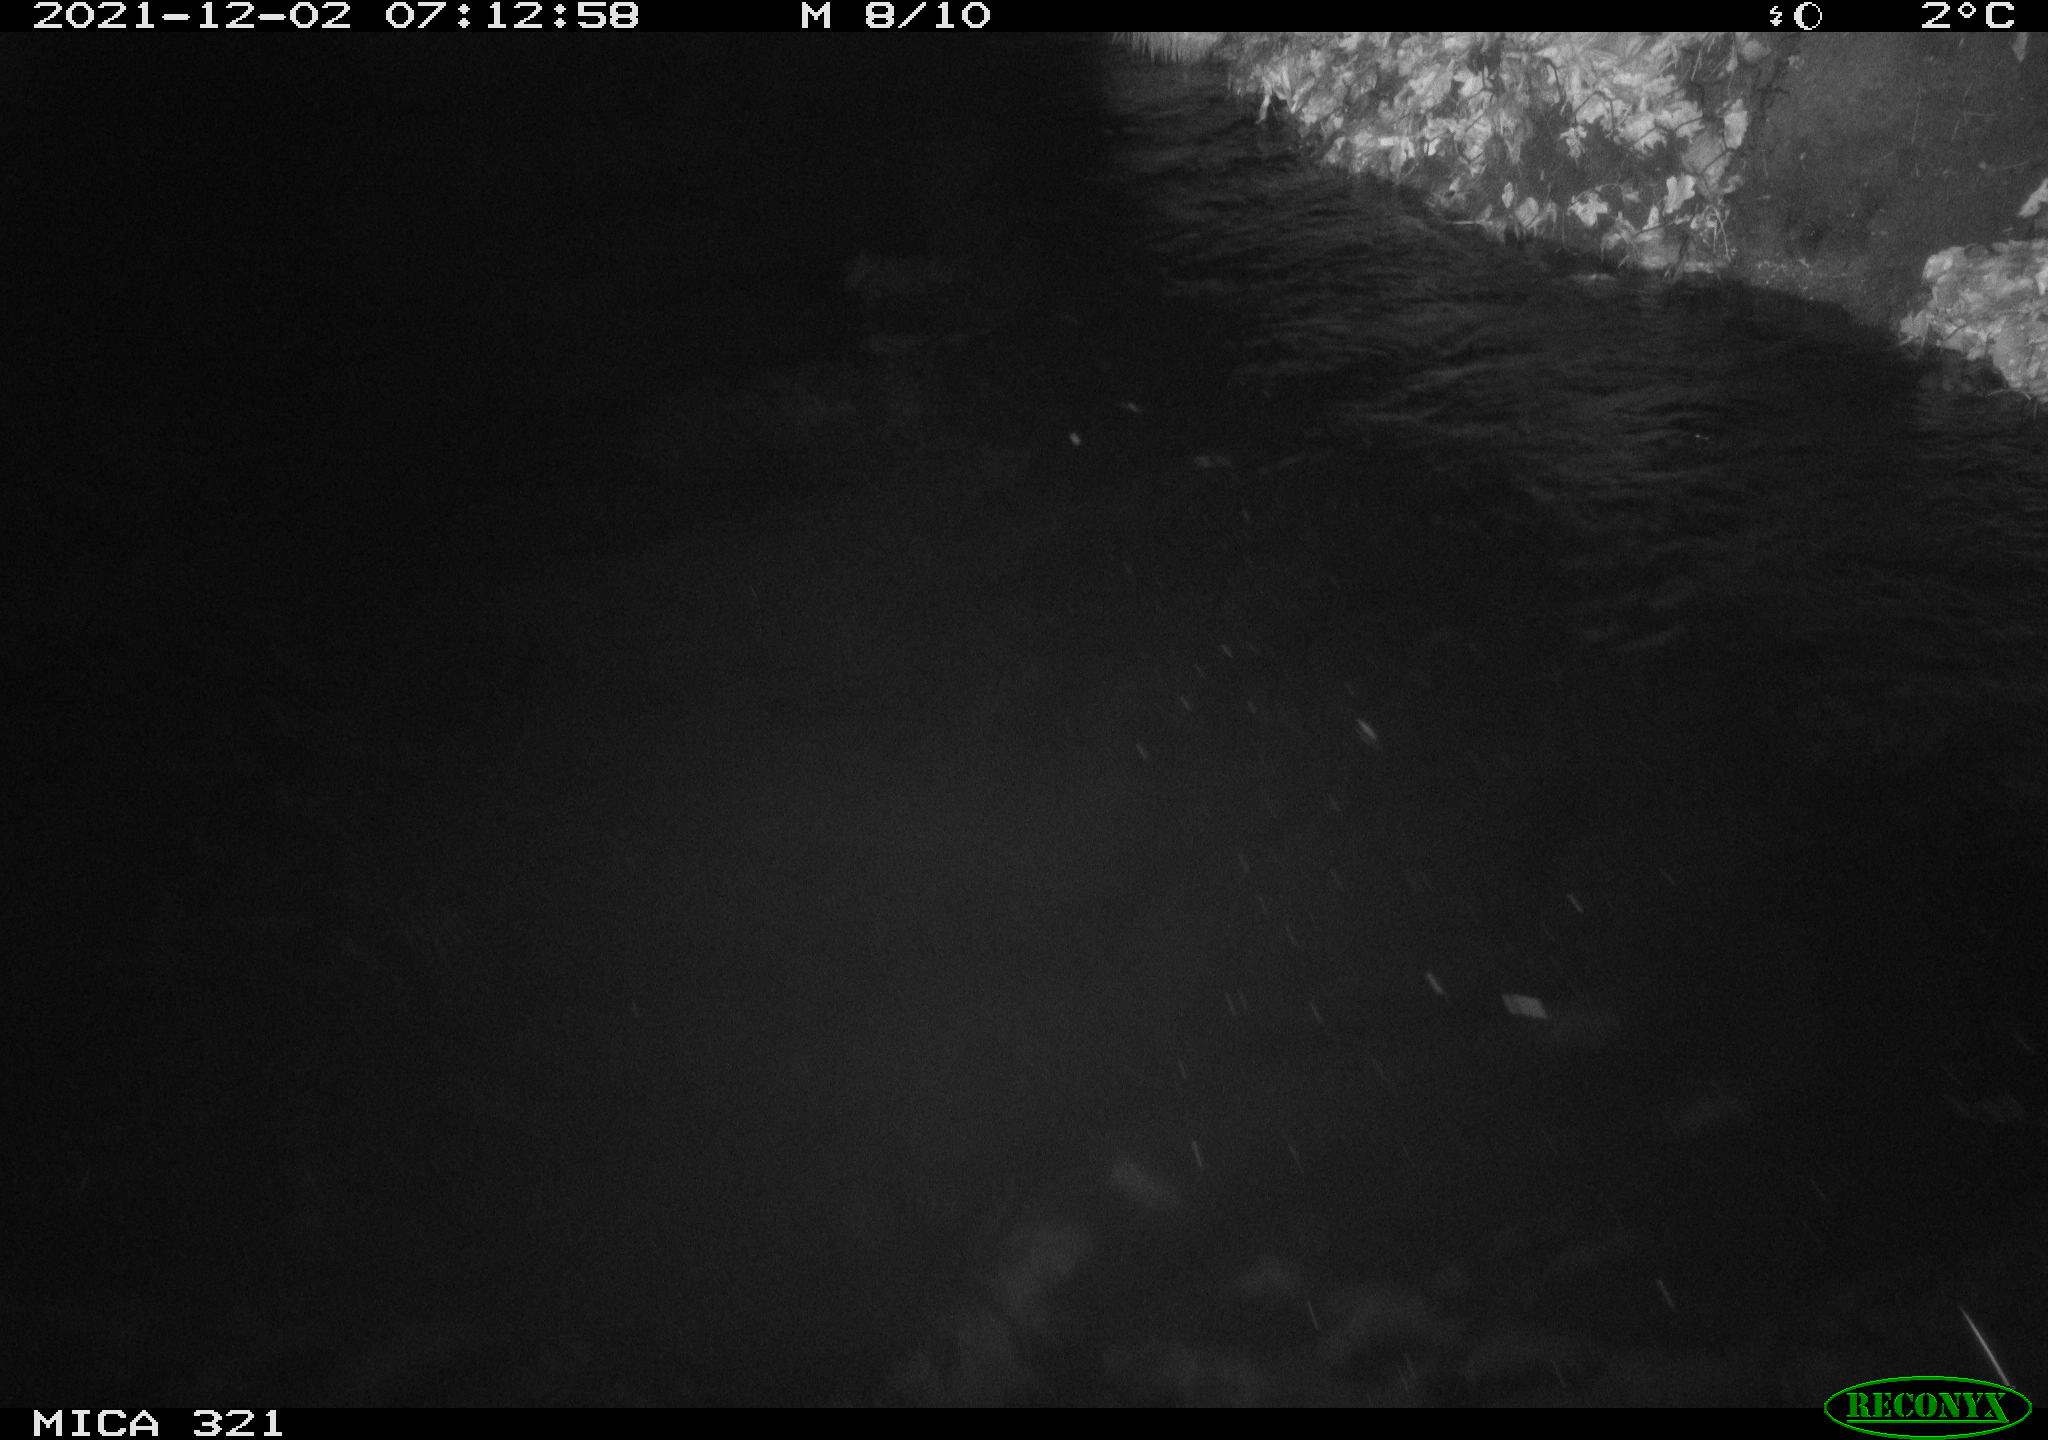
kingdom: Animalia
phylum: Chordata
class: Aves
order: Anseriformes
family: Anatidae
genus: Anas
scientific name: Anas platyrhynchos
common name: Mallard
